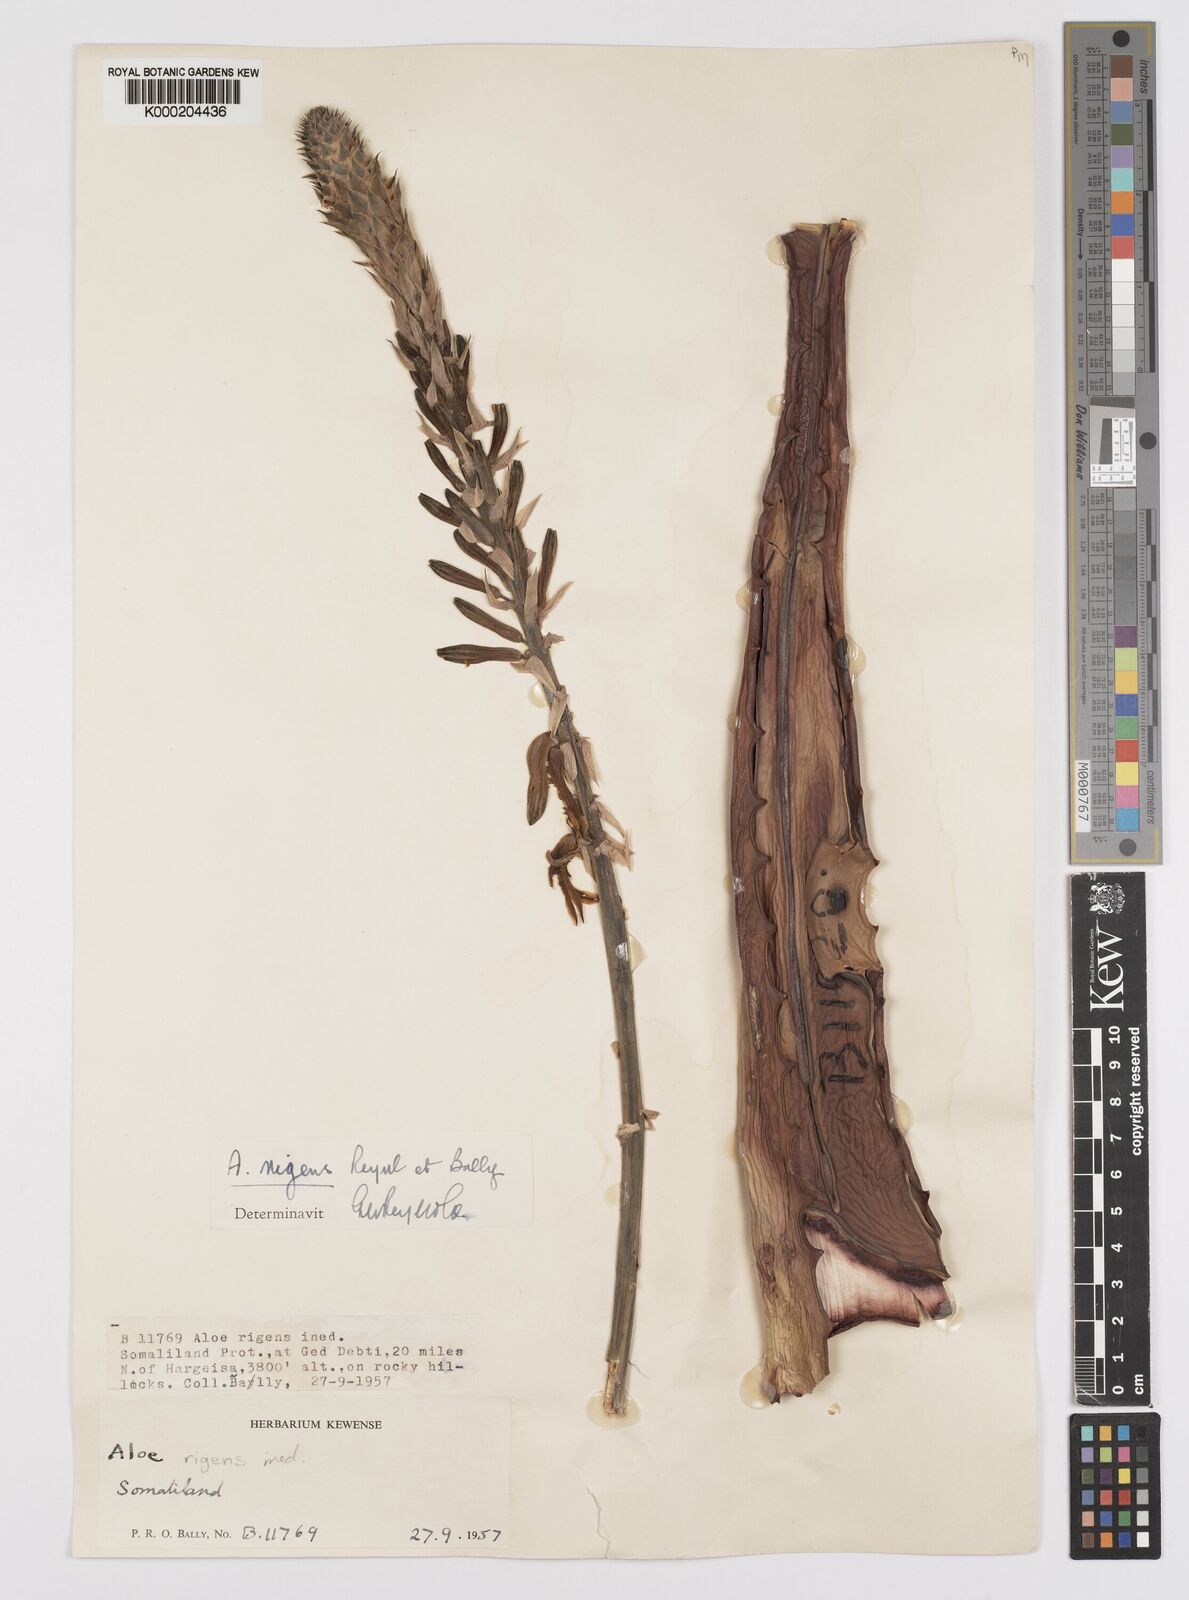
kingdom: Plantae
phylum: Tracheophyta
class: Liliopsida
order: Asparagales
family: Asphodelaceae
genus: Aloe
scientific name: Aloe rigens
